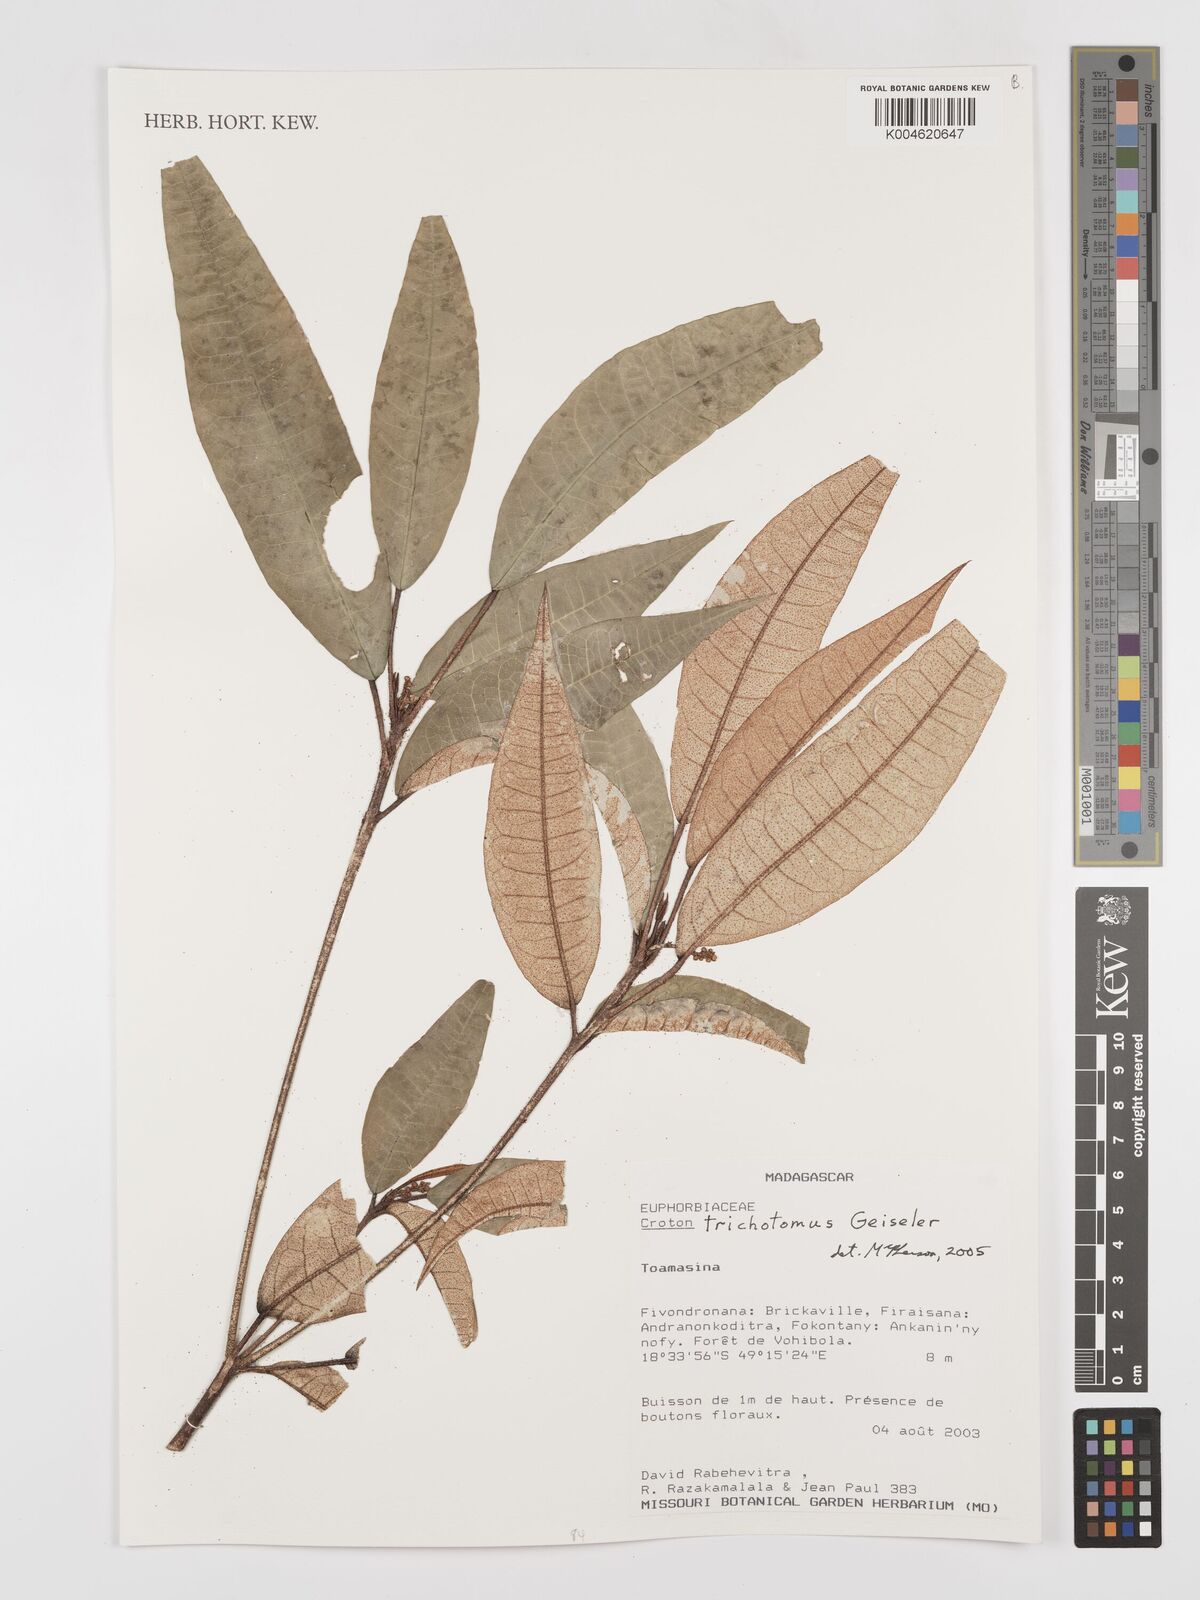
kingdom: Plantae
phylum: Tracheophyta
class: Magnoliopsida
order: Malpighiales
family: Euphorbiaceae
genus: Croton
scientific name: Croton trichotomus
